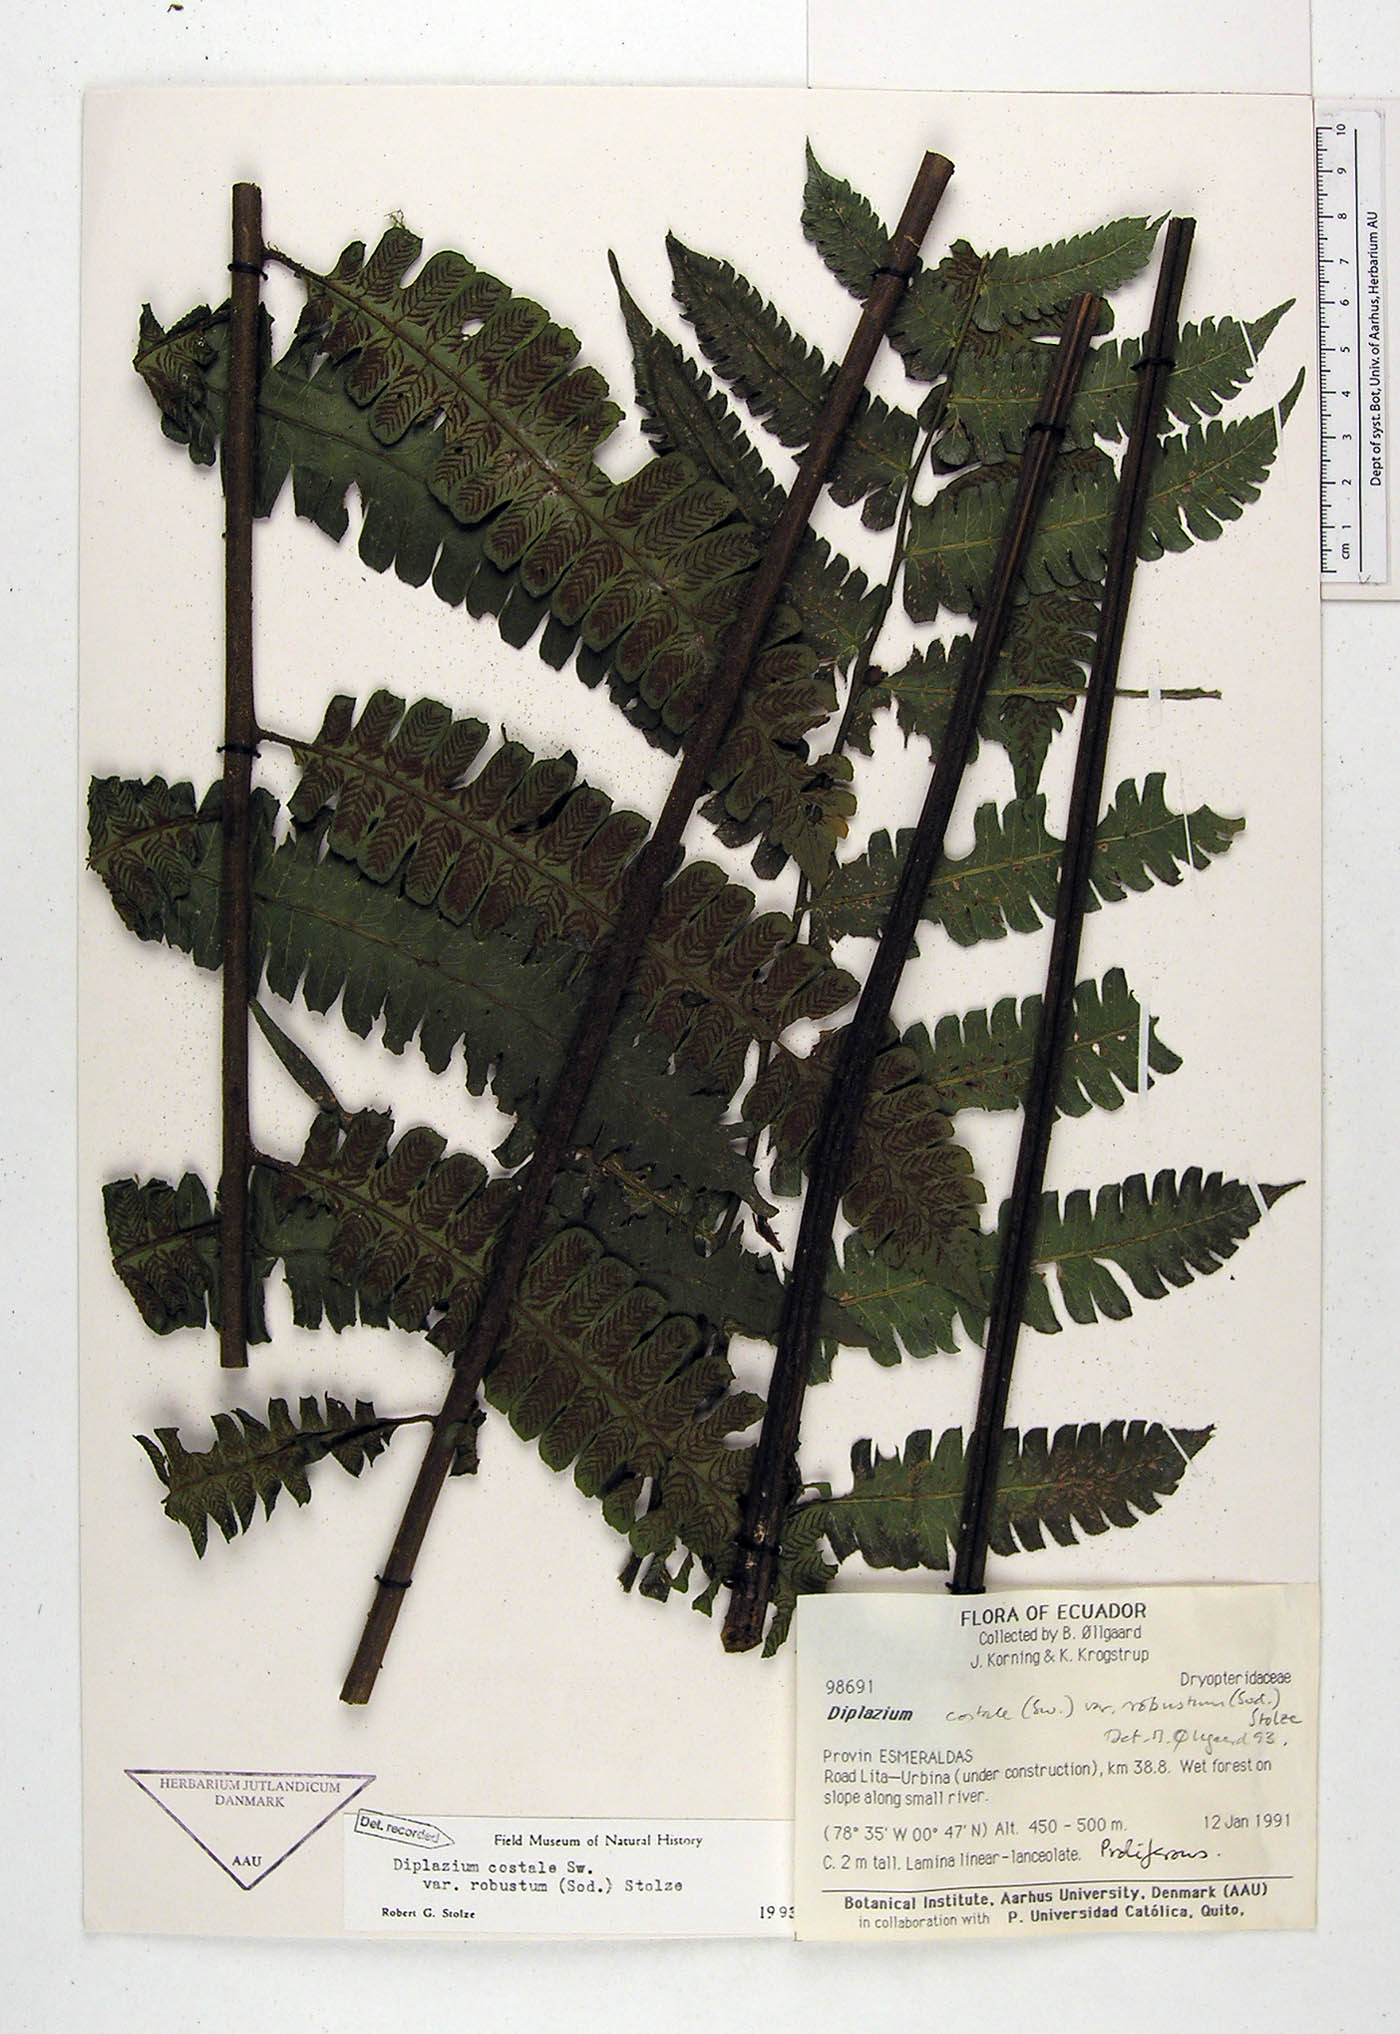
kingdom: Plantae
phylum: Tracheophyta
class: Polypodiopsida
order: Polypodiales
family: Athyriaceae
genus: Diplazium
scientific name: Diplazium oellgaardii
